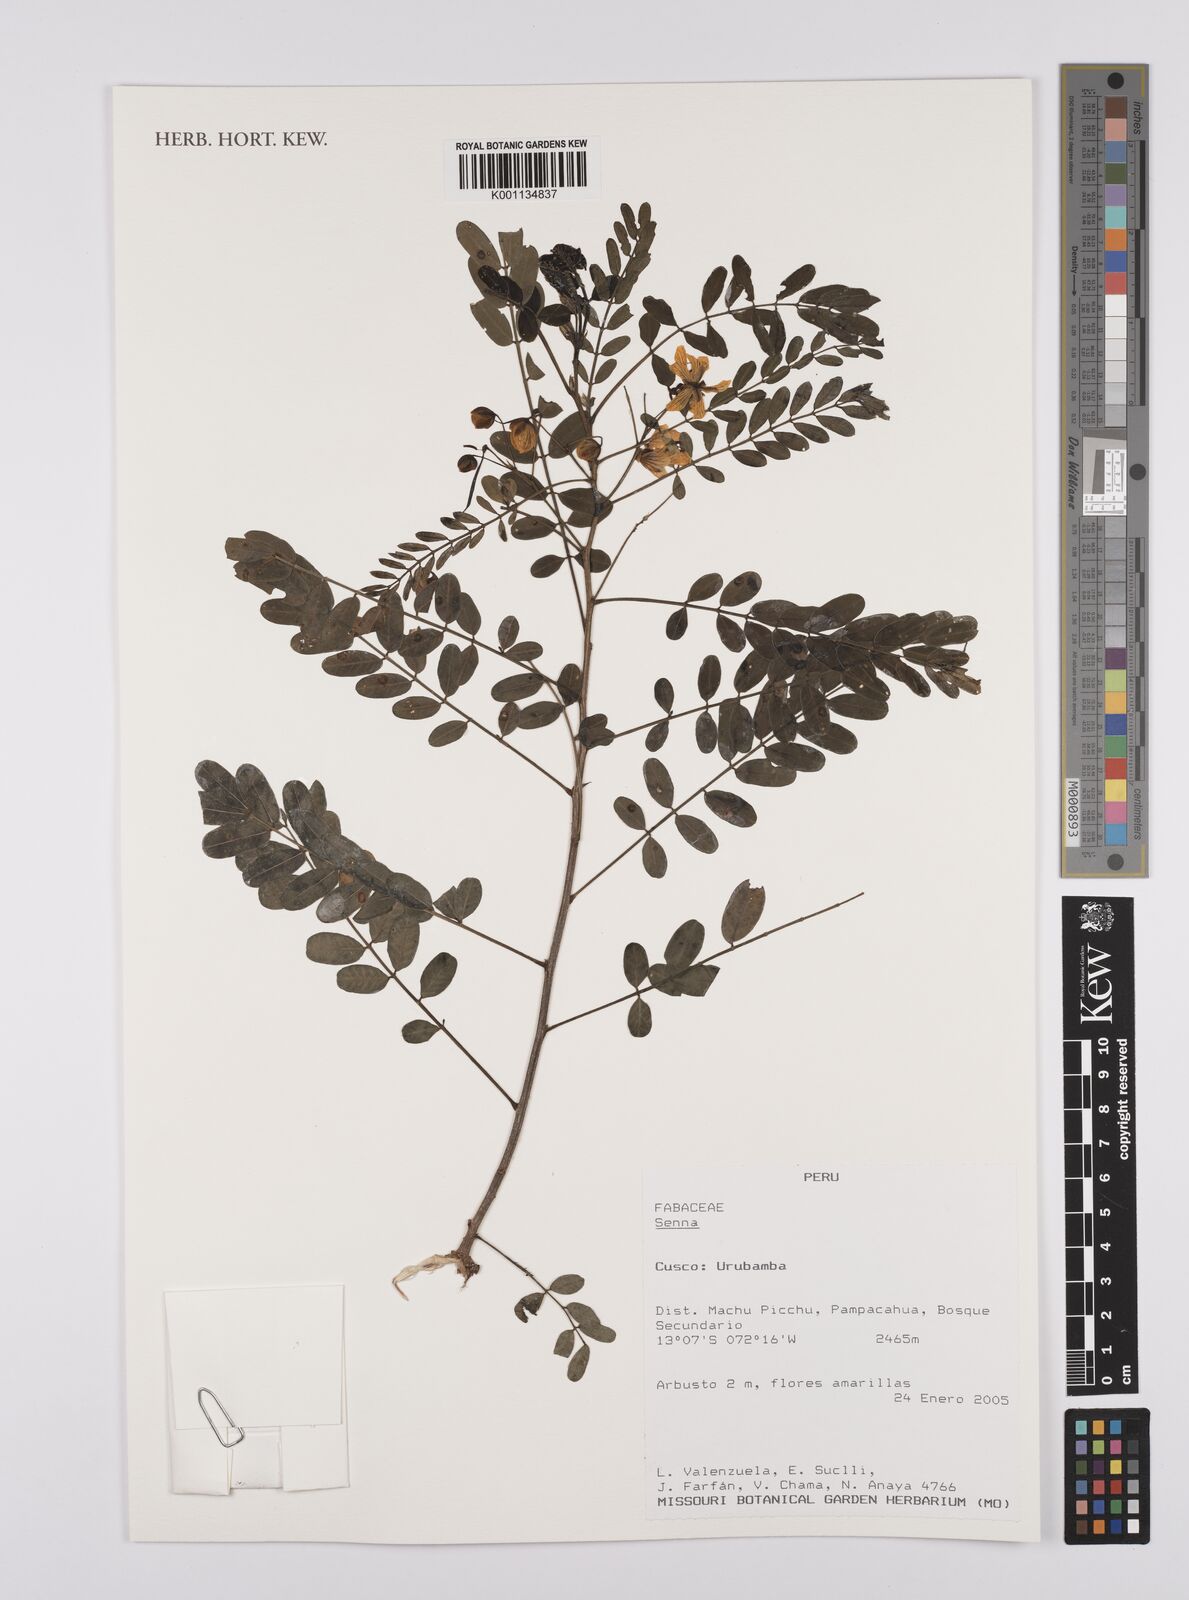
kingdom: Plantae
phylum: Tracheophyta
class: Magnoliopsida
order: Fabales
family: Fabaceae
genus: Senna
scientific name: Senna
